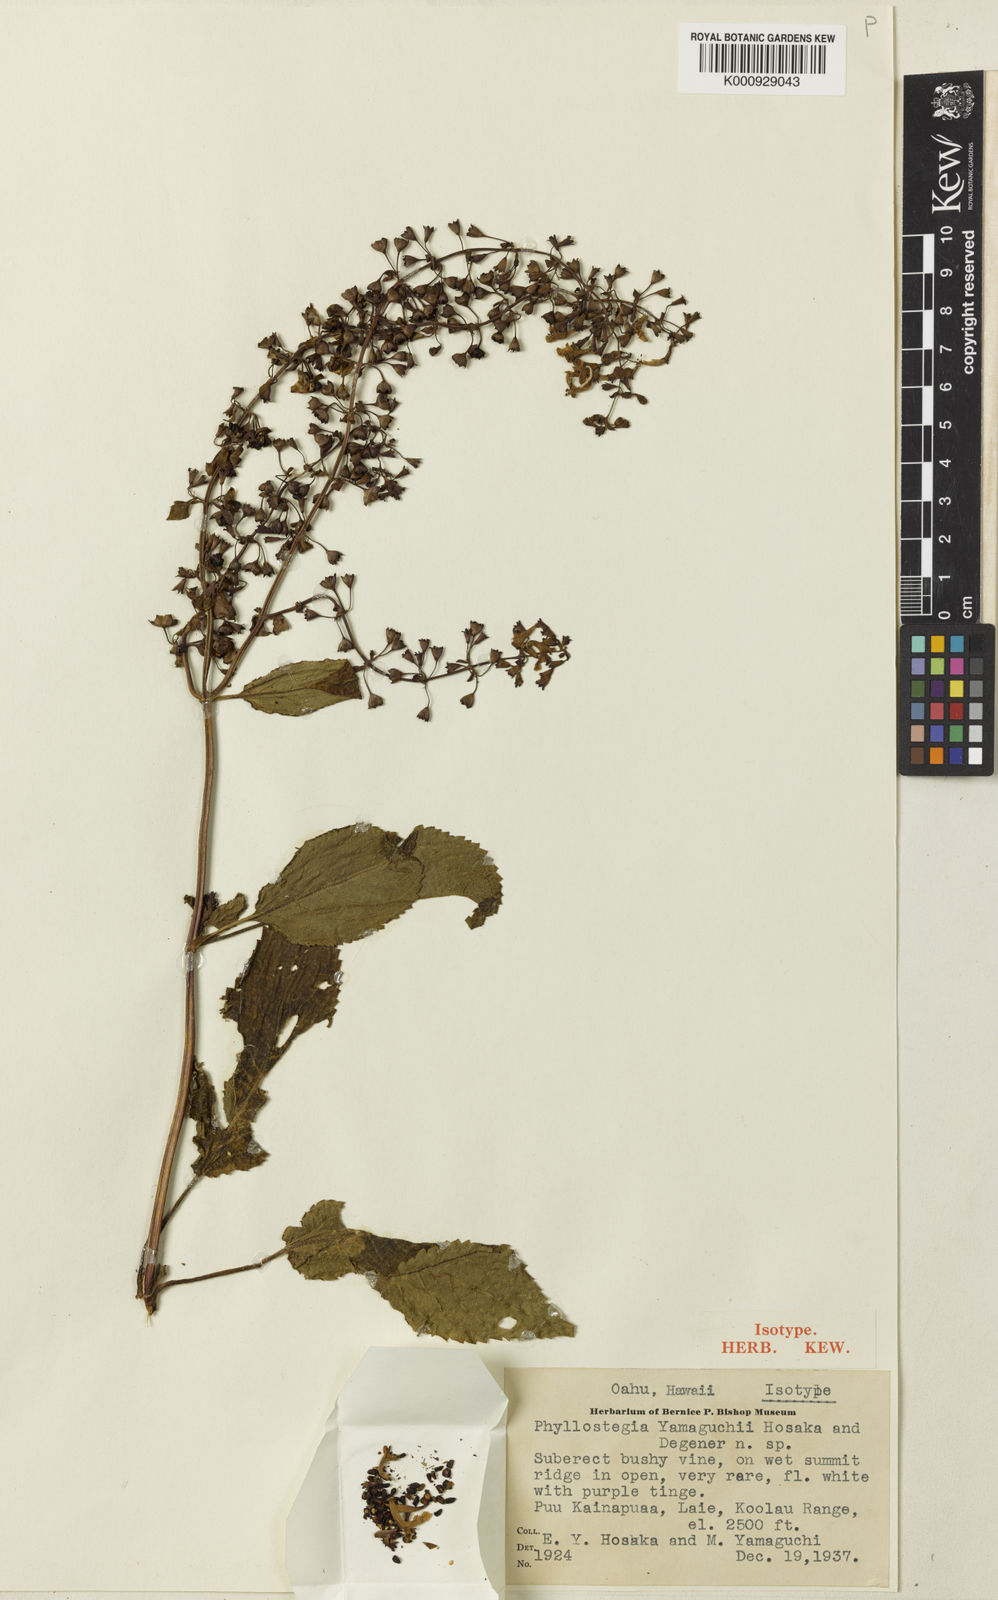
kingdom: Plantae
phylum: Tracheophyta
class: Magnoliopsida
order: Lamiales
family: Lamiaceae
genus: Phyllostegia
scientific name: Phyllostegia yamaguchii
